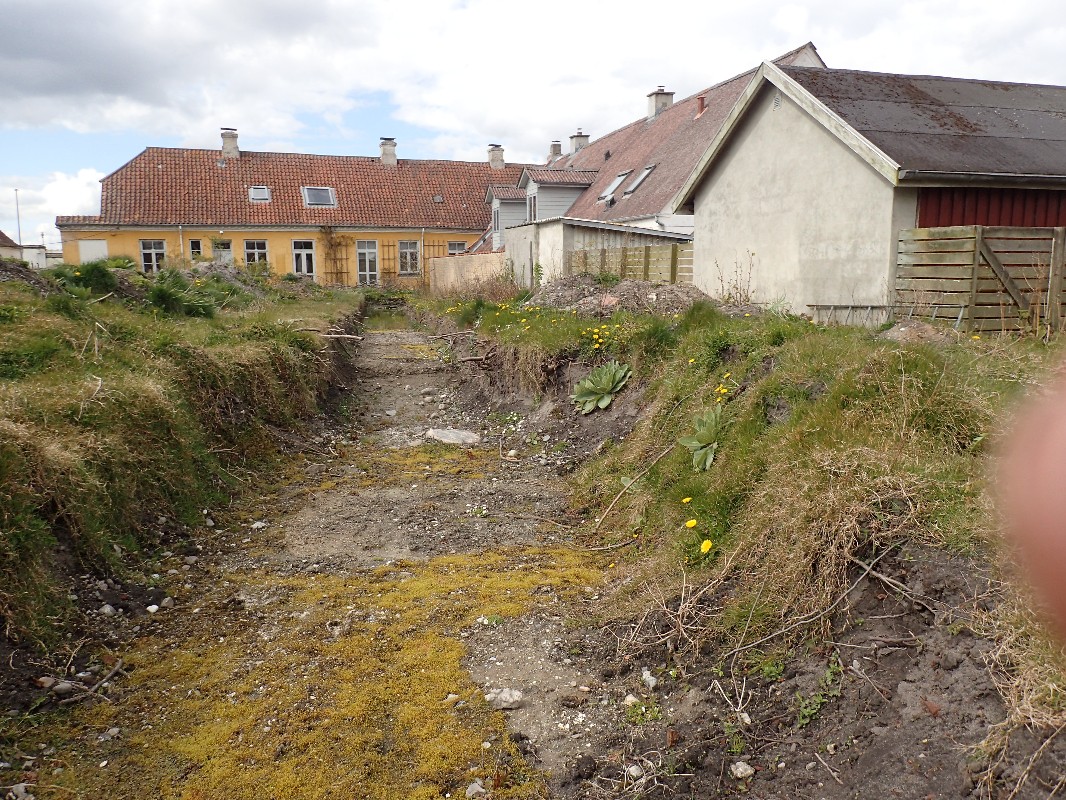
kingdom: Fungi
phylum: Ascomycota
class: Pezizomycetes
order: Pezizales
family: Morchellaceae
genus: Morchella
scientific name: Morchella esculenta
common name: almindelig morkel
